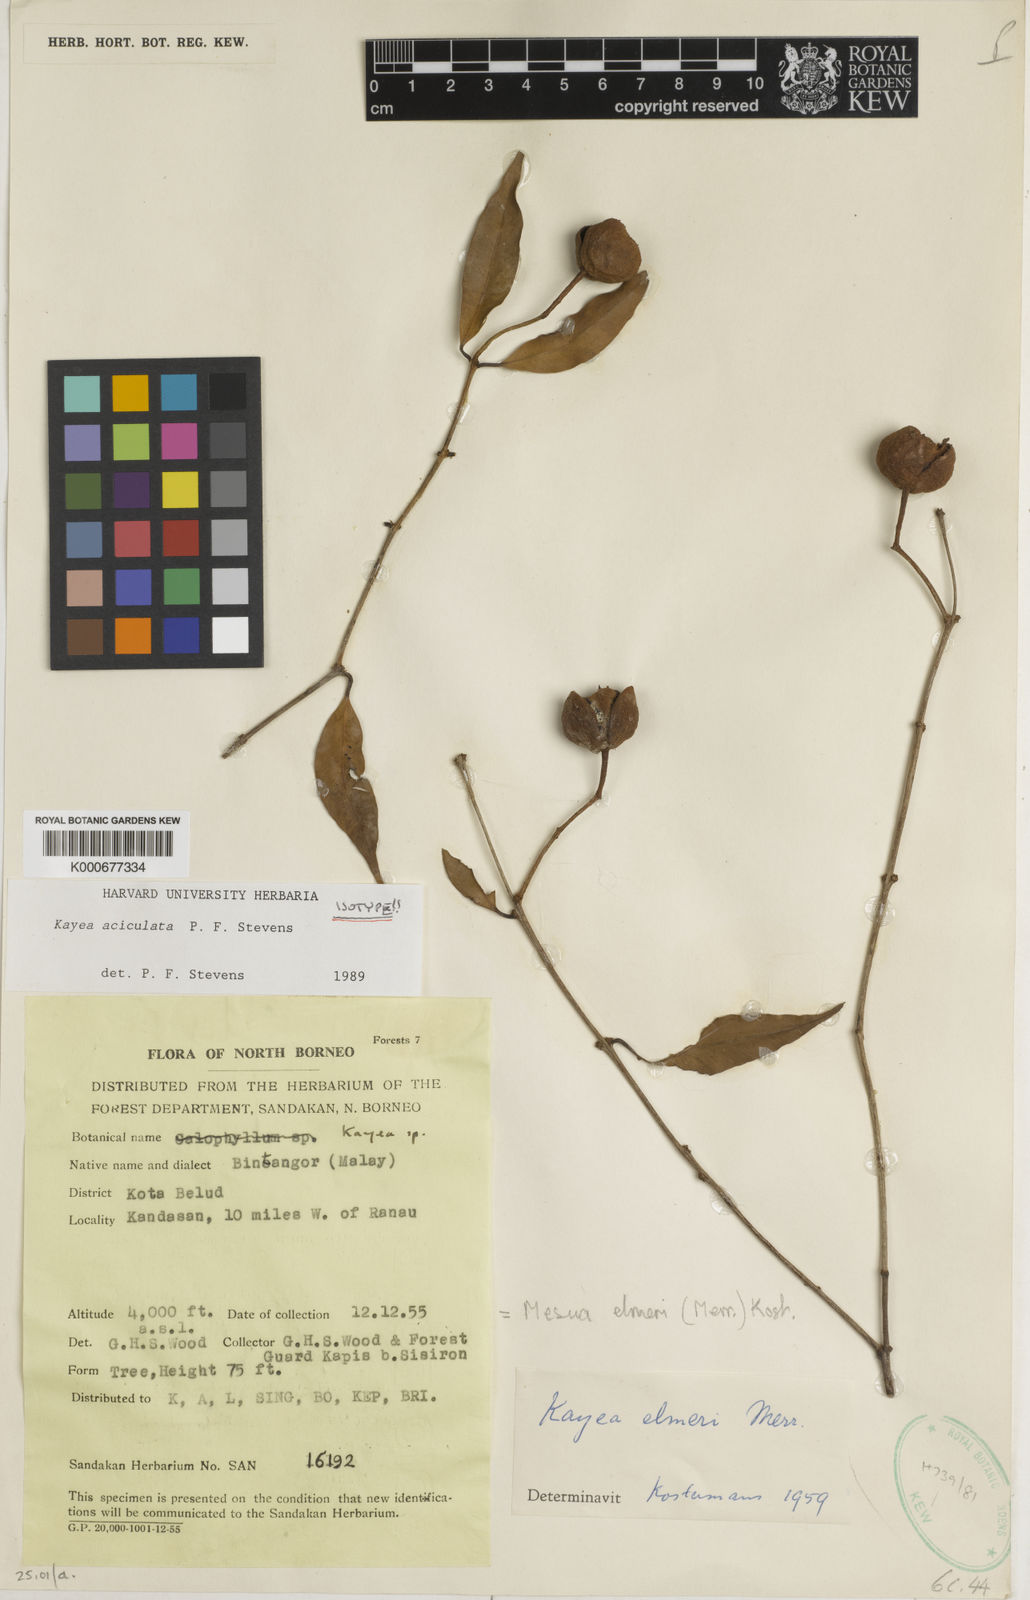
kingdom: Plantae
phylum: Tracheophyta
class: Magnoliopsida
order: Malpighiales
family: Calophyllaceae
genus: Kayea
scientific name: Kayea
